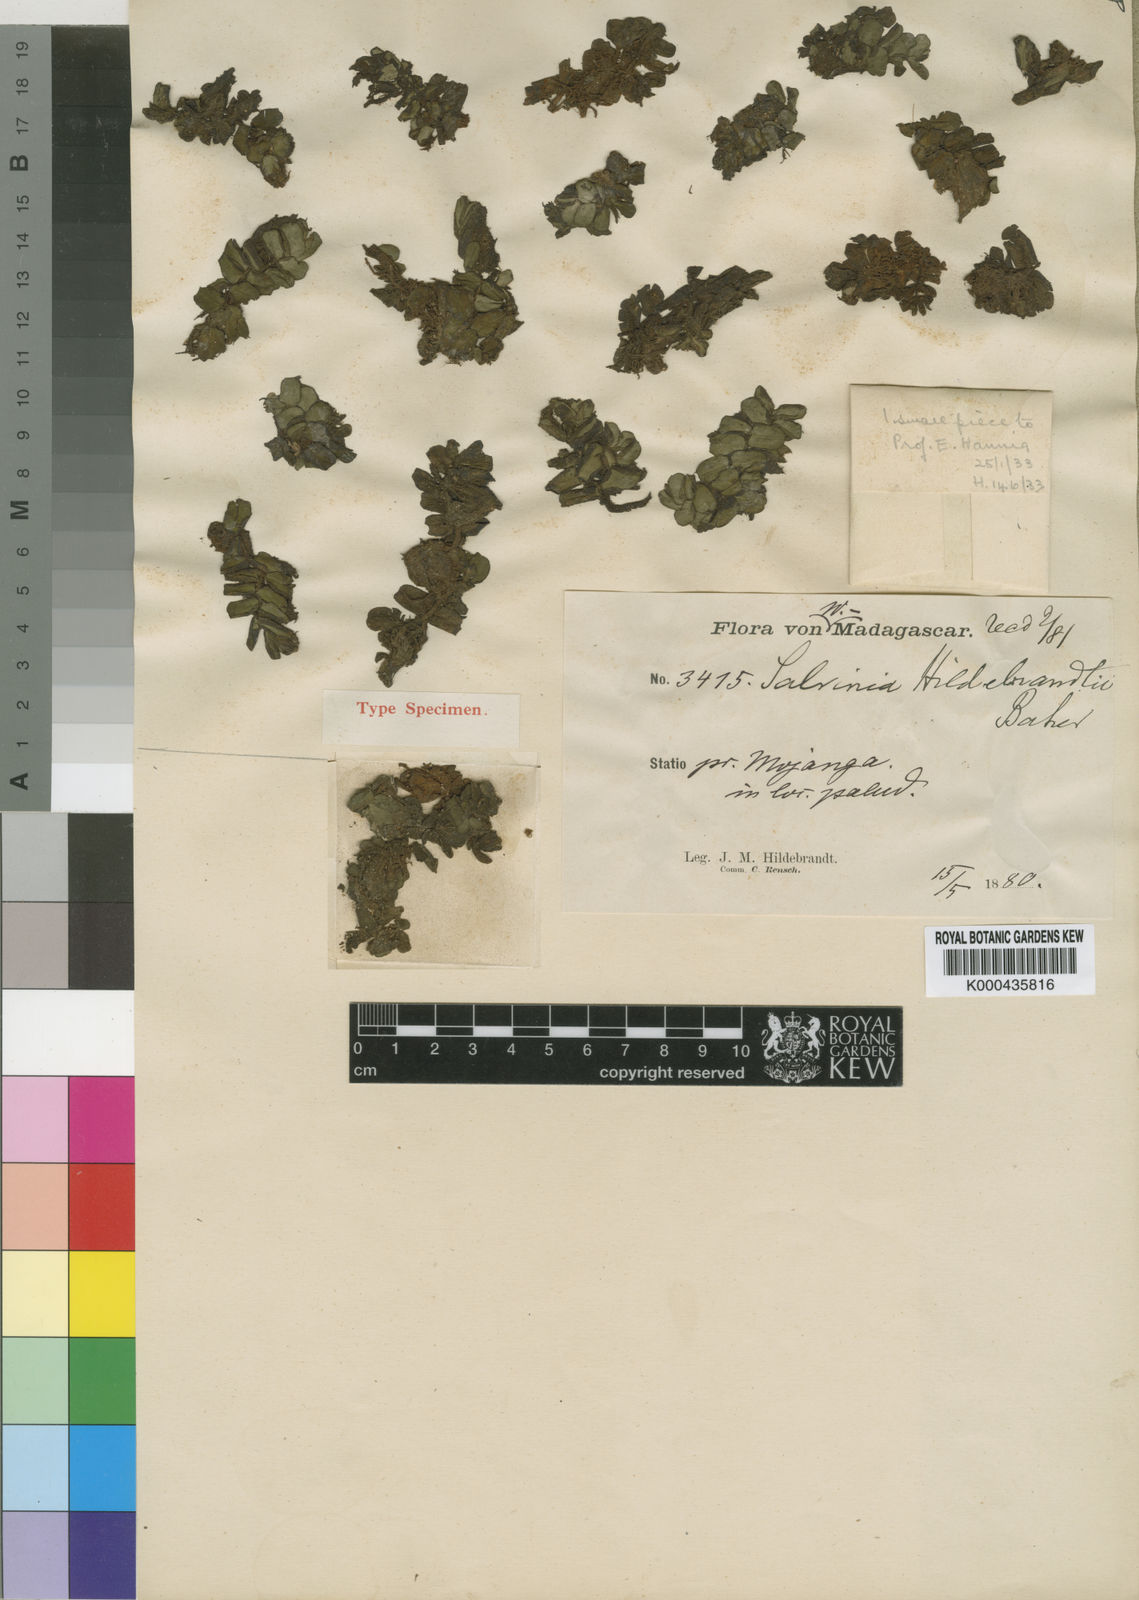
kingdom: Plantae
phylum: Tracheophyta
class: Polypodiopsida
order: Salviniales
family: Salviniaceae
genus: Salvinia
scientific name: Salvinia hastata
